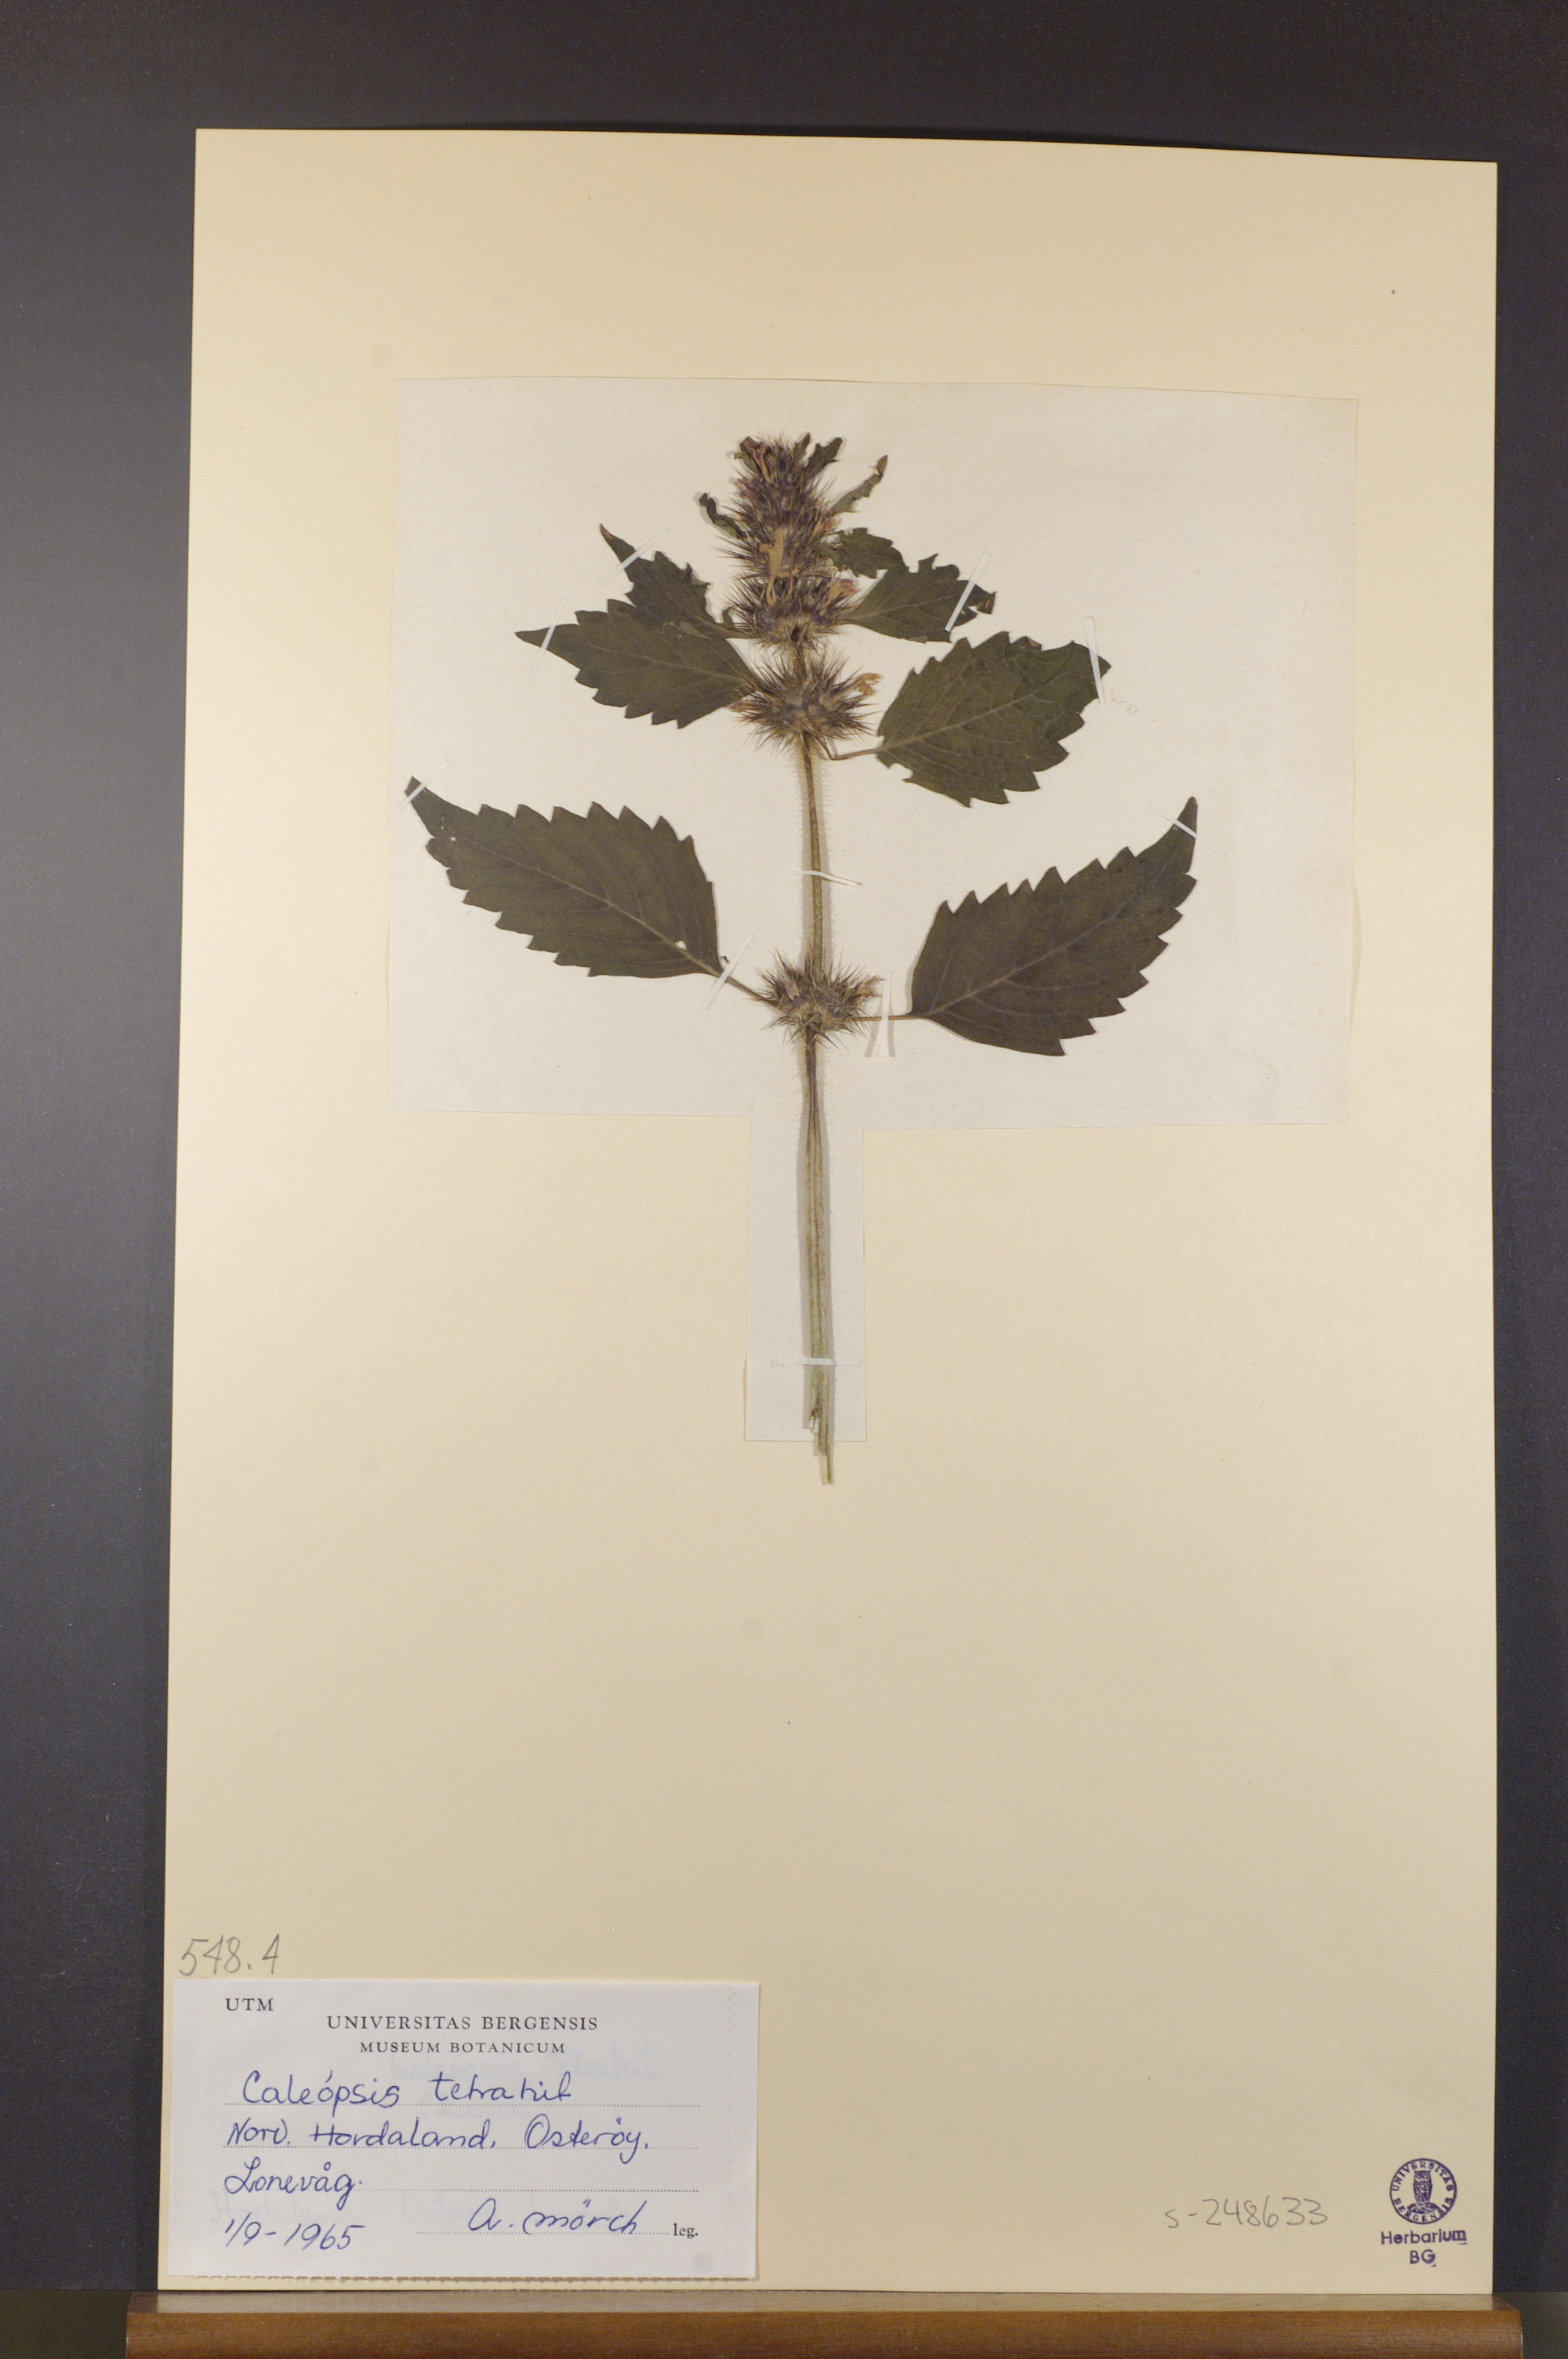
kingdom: Plantae
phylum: Tracheophyta
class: Magnoliopsida
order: Lamiales
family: Lamiaceae
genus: Galeopsis
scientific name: Galeopsis tetrahit
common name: Common hemp-nettle
